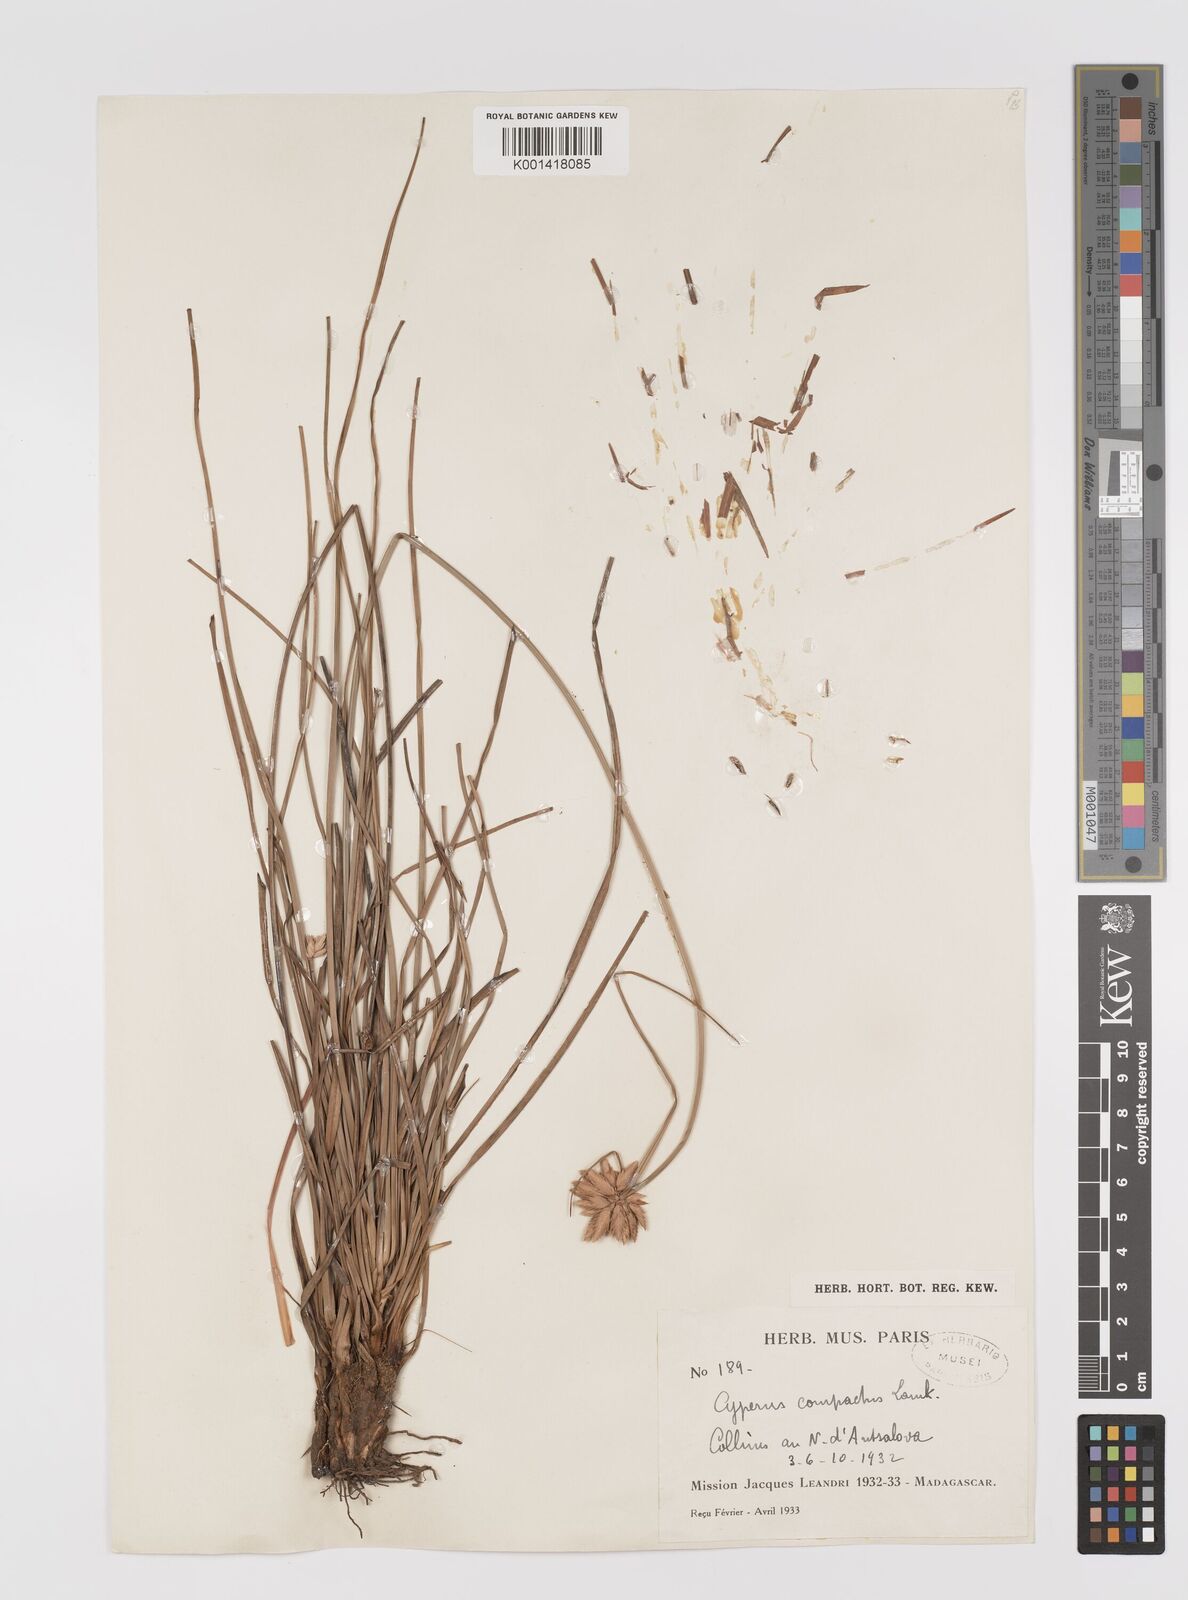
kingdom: Plantae
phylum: Tracheophyta
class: Liliopsida
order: Poales
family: Cyperaceae
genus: Cyperus
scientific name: Cyperus niveus
